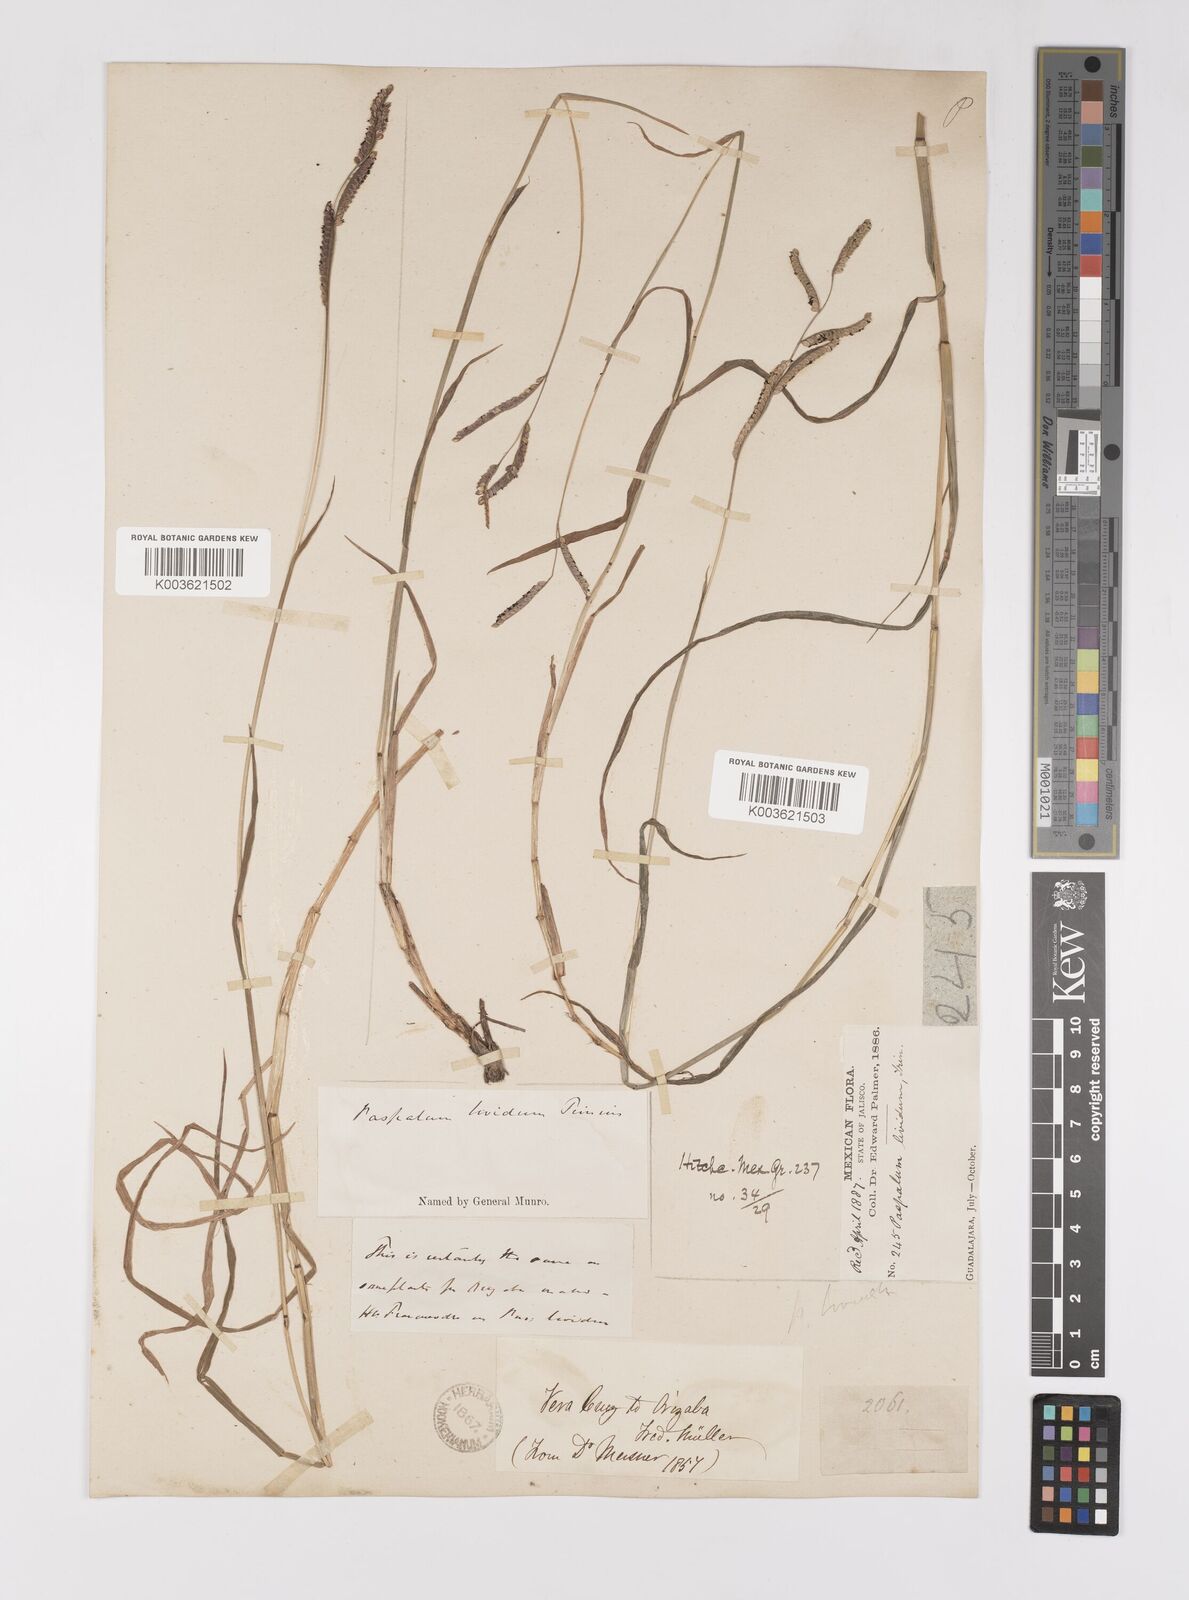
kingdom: Plantae
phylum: Tracheophyta
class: Liliopsida
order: Poales
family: Poaceae
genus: Paspalum
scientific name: Paspalum denticulatum
